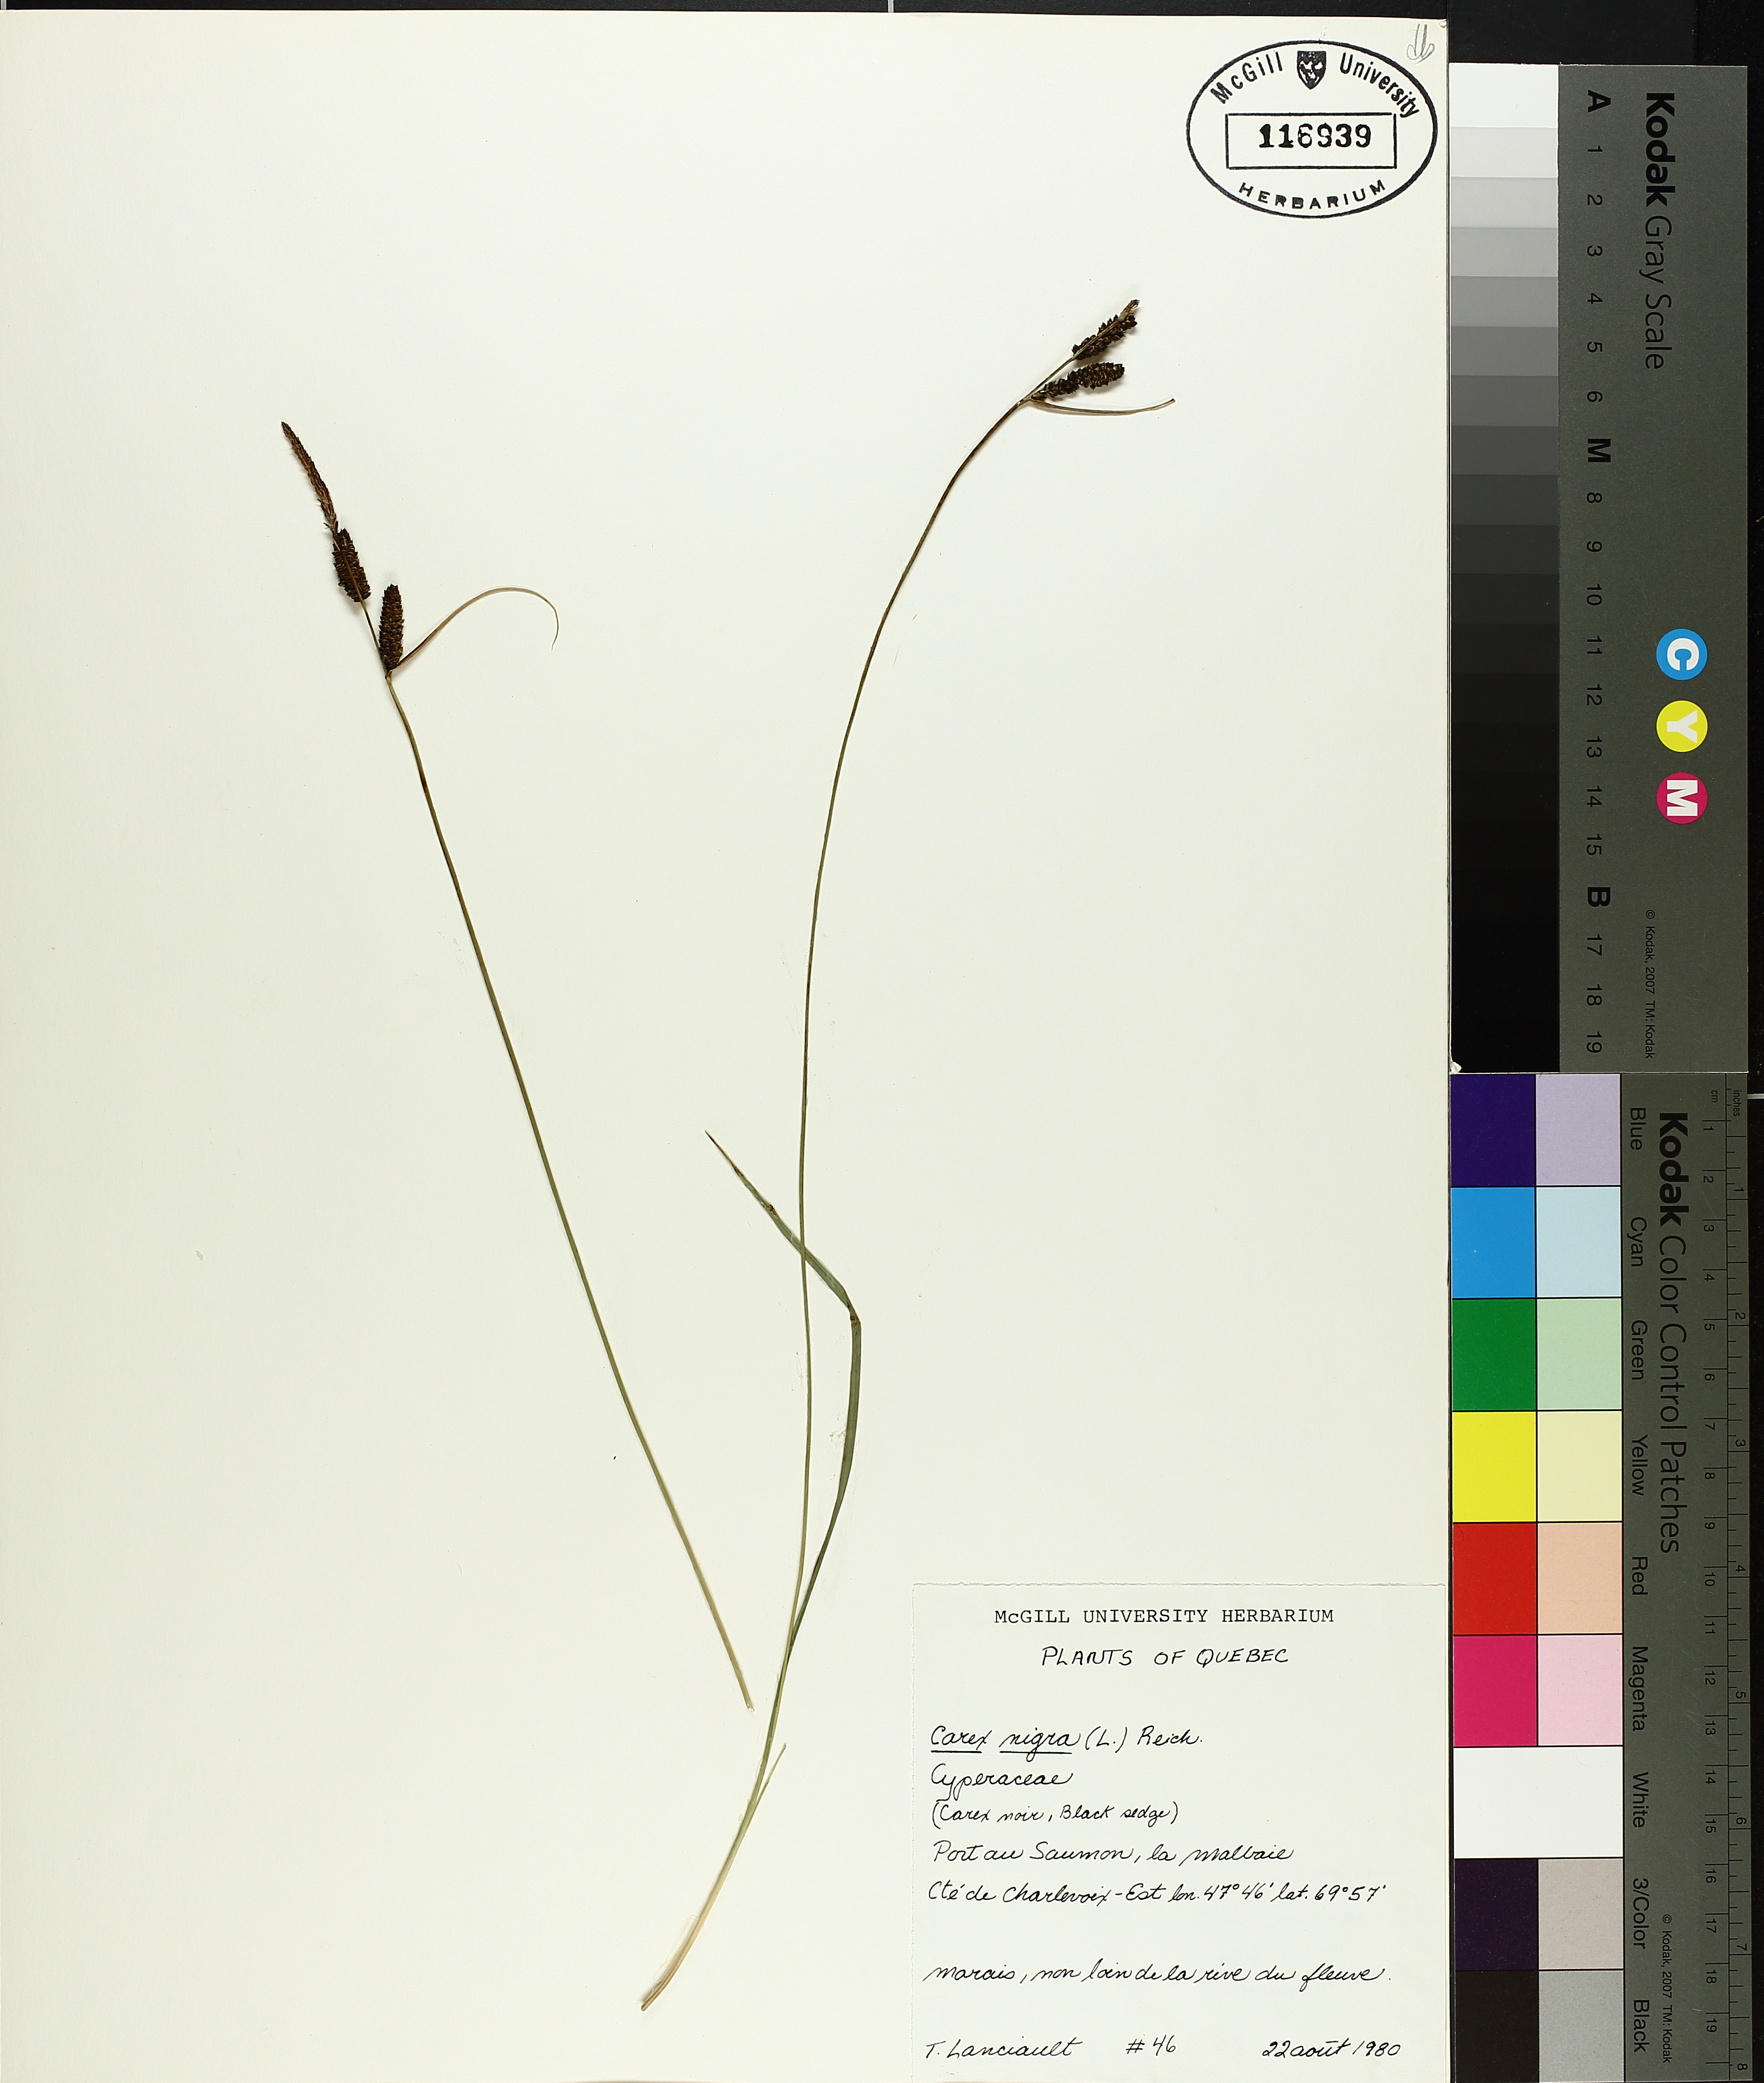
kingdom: Plantae
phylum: Tracheophyta
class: Liliopsida
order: Poales
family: Cyperaceae
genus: Carex
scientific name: Carex nigra
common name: Common sedge
